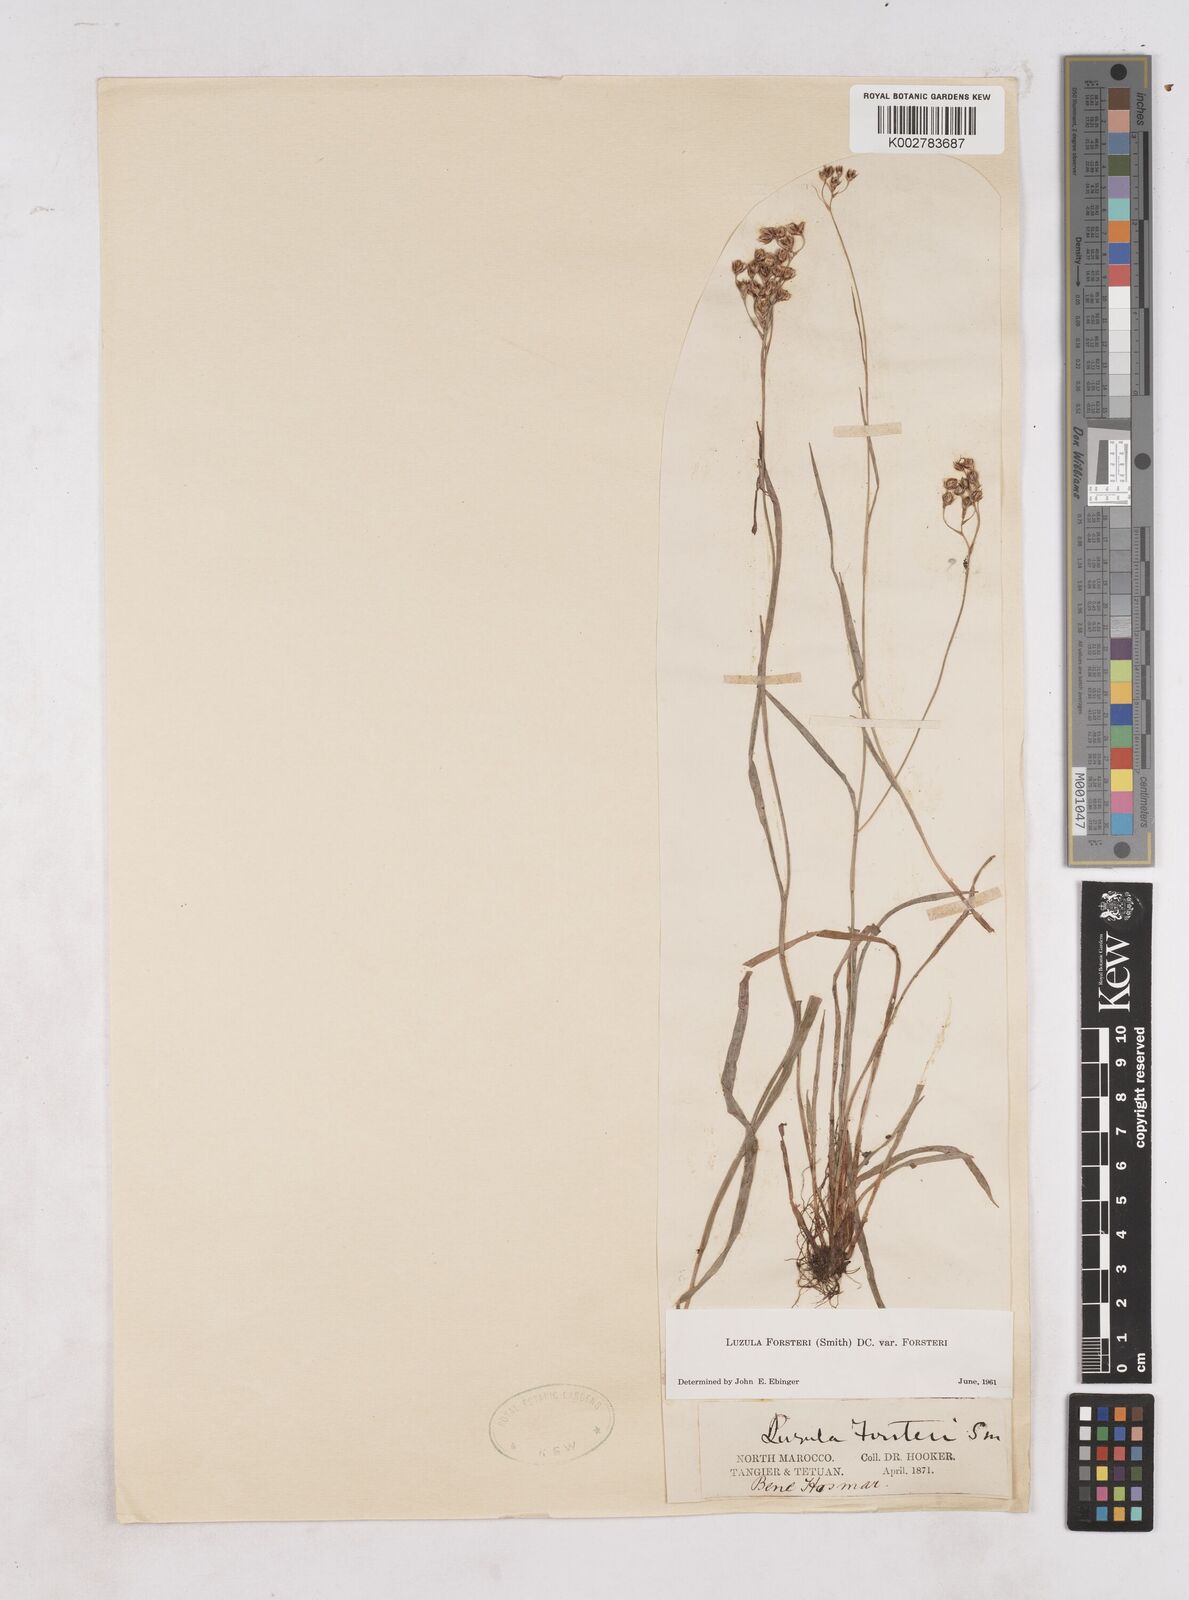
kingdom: Plantae
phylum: Tracheophyta
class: Liliopsida
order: Poales
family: Juncaceae
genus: Luzula
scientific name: Luzula forsteri
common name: Southern wood-rush
